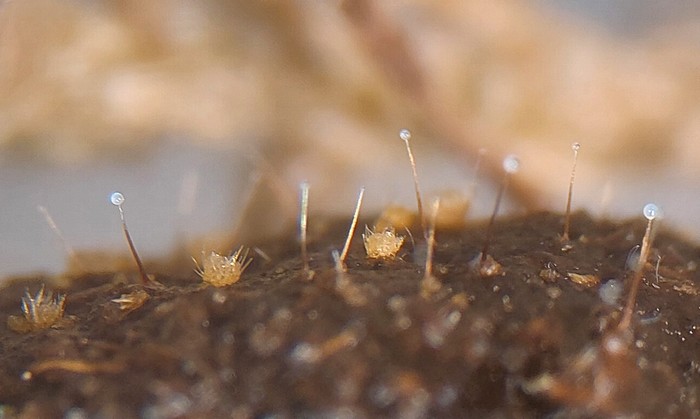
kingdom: Fungi
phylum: Ascomycota
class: Sordariomycetes
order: Melanosporales
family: Ceratostomataceae
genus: Sphaeronaemella
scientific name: Sphaeronaemella fimicola
